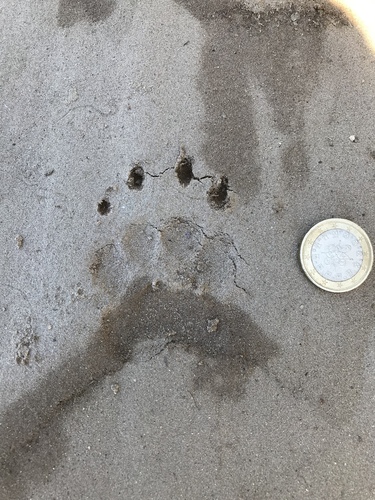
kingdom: Animalia
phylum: Chordata
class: Mammalia
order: Carnivora
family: Mustelidae
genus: Meles
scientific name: Meles meles
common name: Eurasian badger
